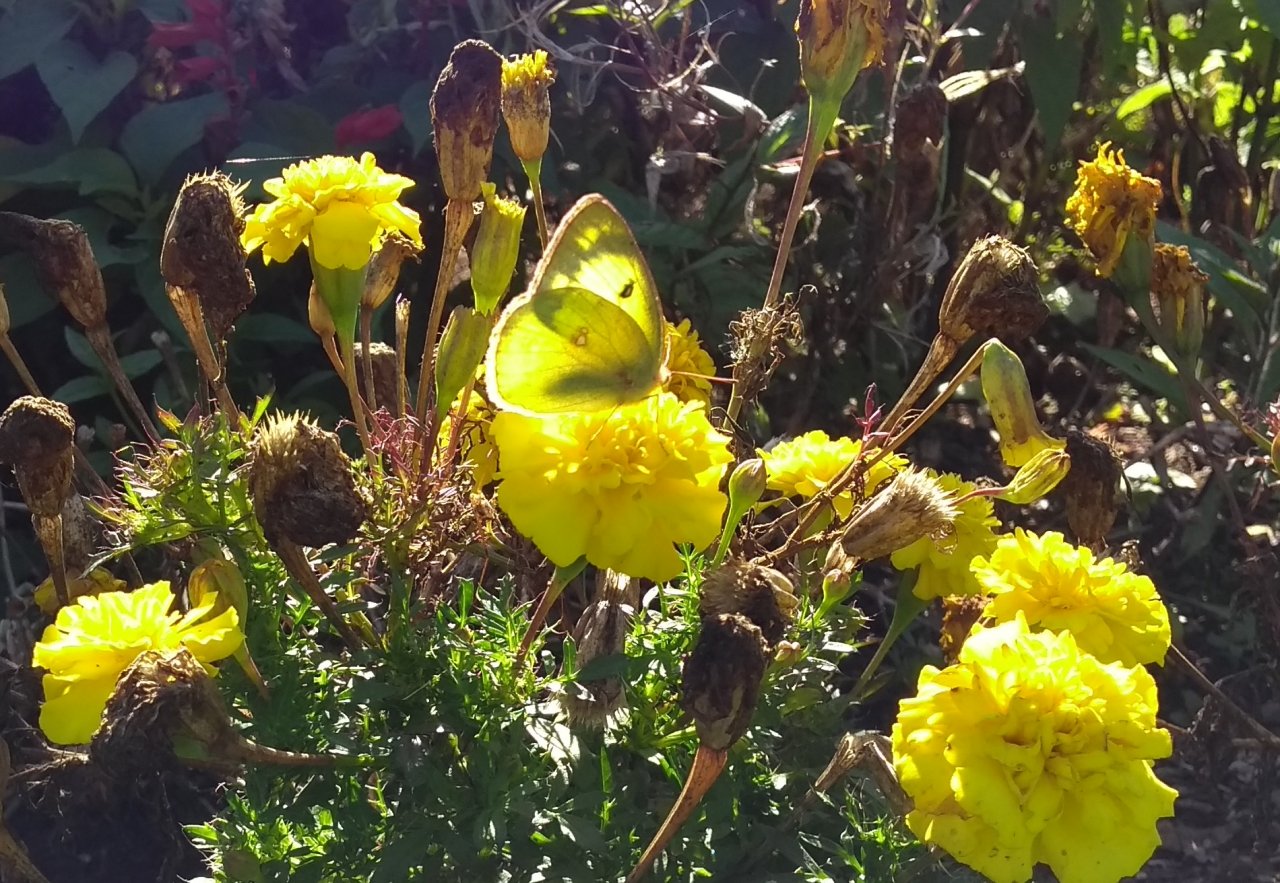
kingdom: Animalia
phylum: Arthropoda
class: Insecta
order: Lepidoptera
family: Pieridae
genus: Colias
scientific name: Colias philodice
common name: Clouded Sulphur
